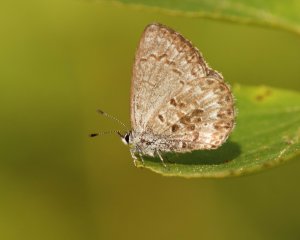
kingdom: Animalia
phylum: Arthropoda
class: Insecta
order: Lepidoptera
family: Lycaenidae
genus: Celastrina
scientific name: Celastrina lucia
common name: Northern Spring Azure
